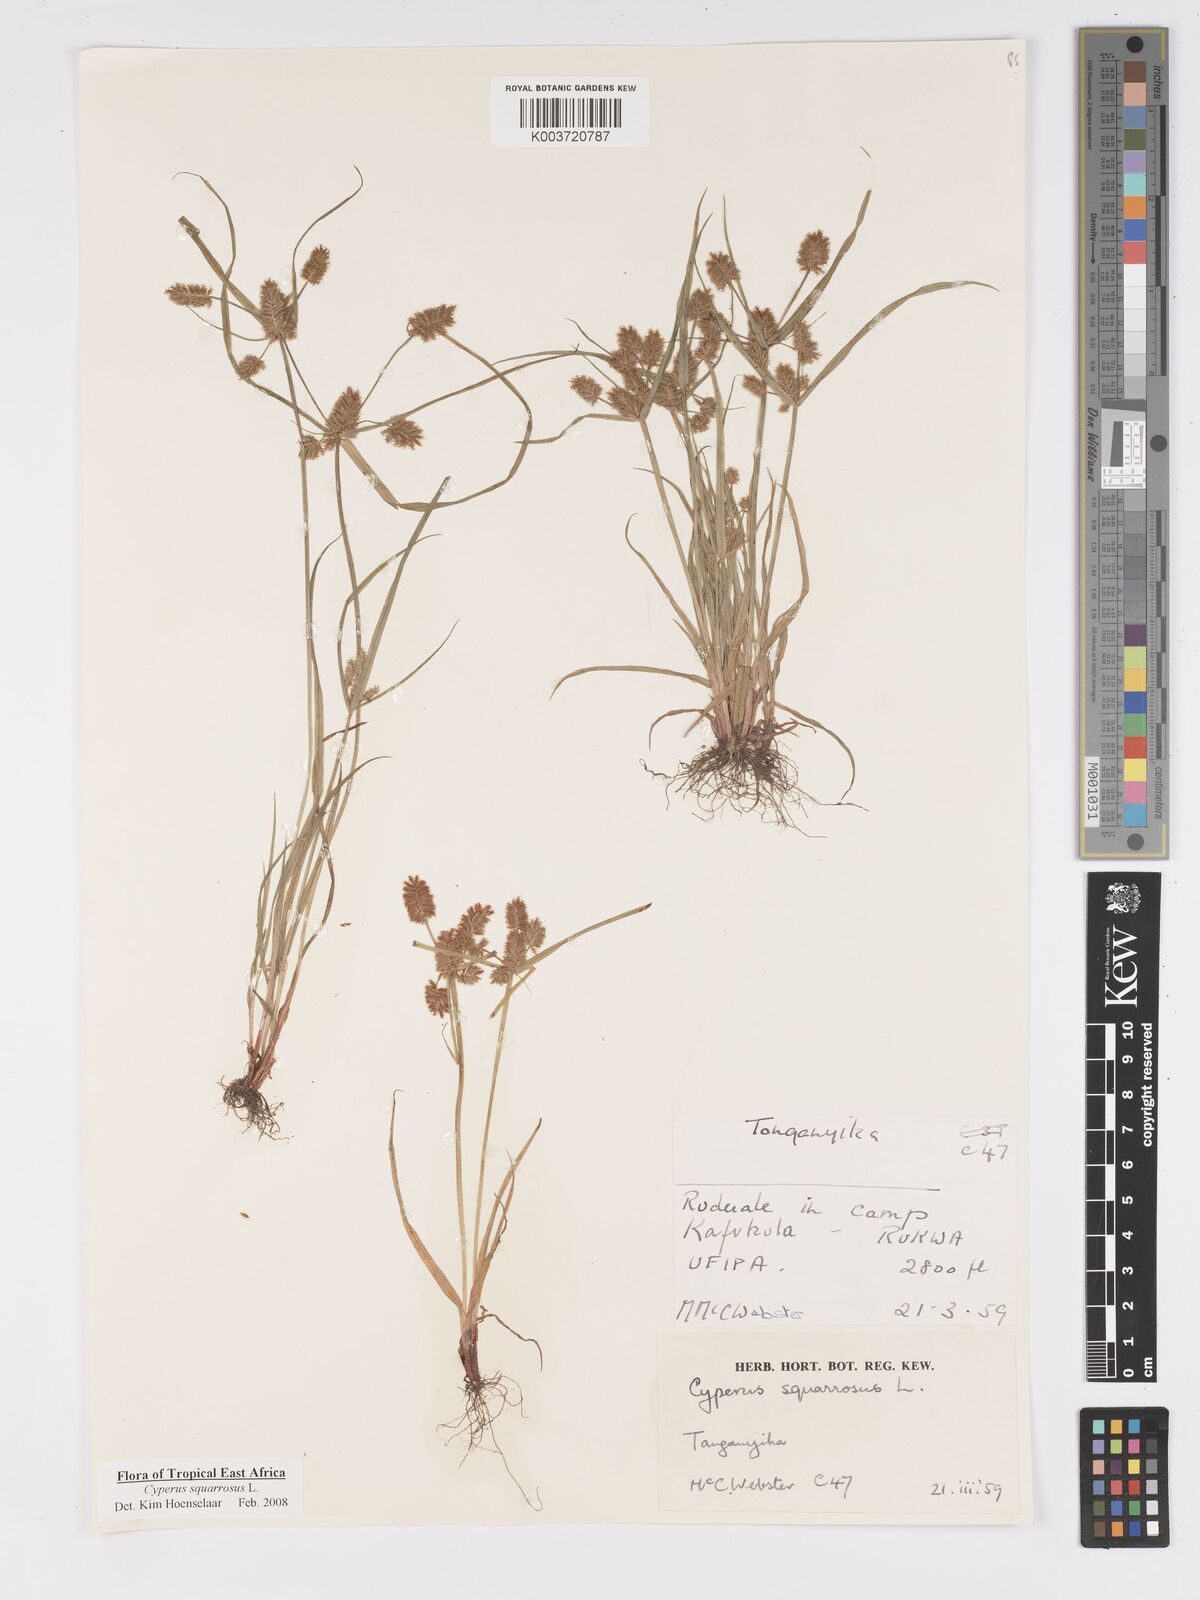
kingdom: Plantae
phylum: Tracheophyta
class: Liliopsida
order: Poales
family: Cyperaceae
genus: Cyperus
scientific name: Cyperus squarrosus
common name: Awned cyperus
